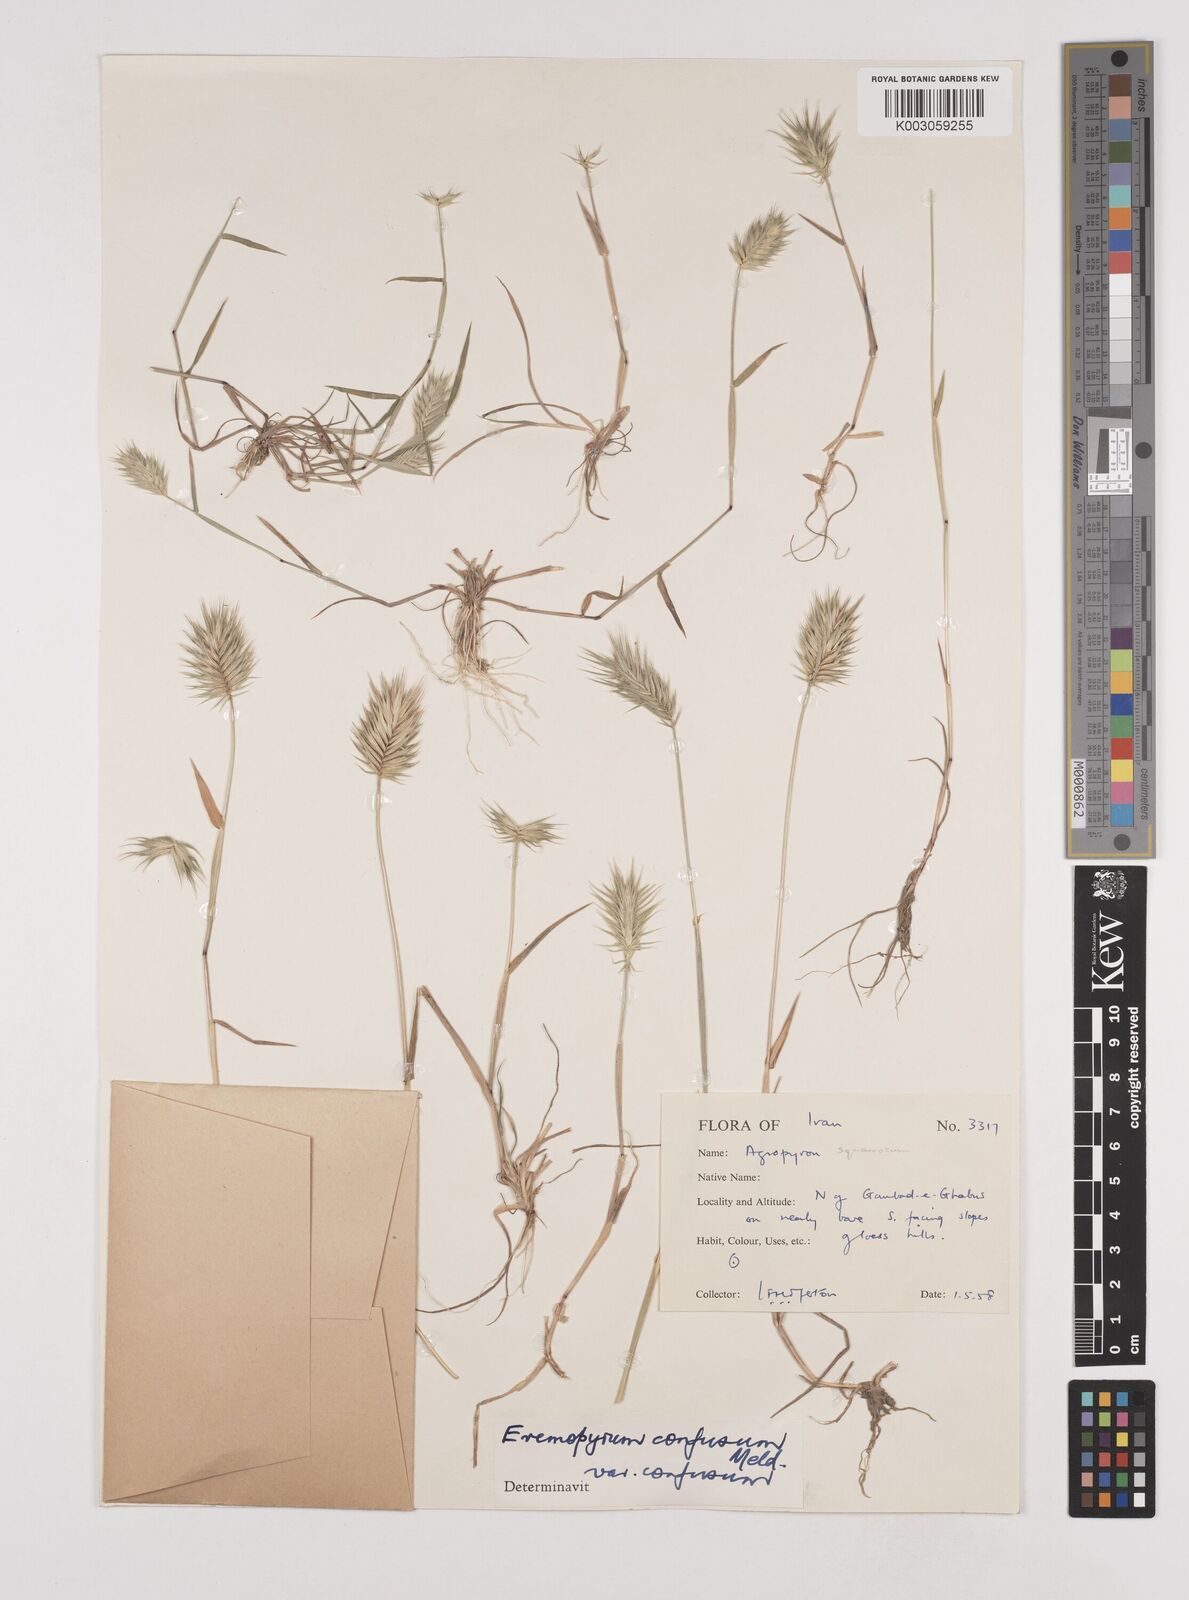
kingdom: Plantae
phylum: Tracheophyta
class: Liliopsida
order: Poales
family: Poaceae
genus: Eremopyrum
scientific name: Eremopyrum bonaepartis
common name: Tapertip false wheatgrass
